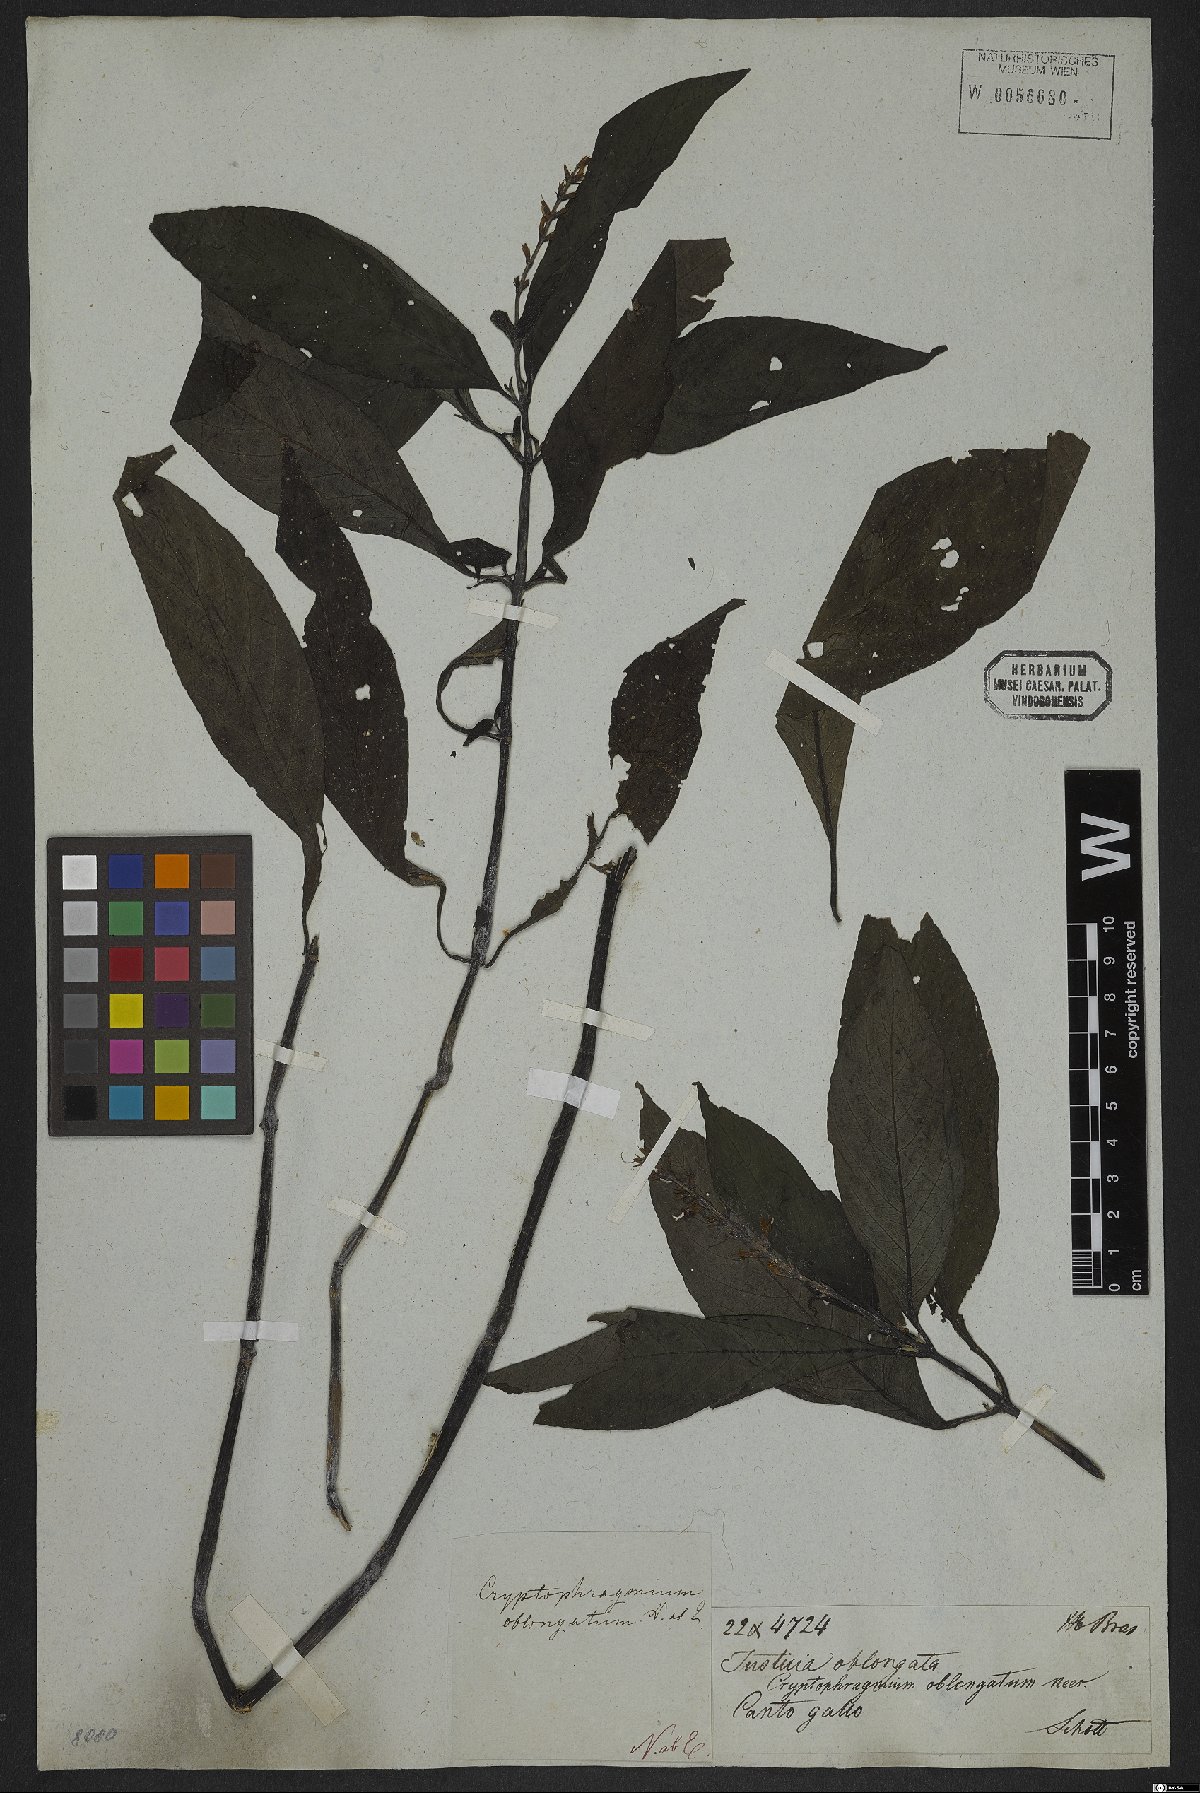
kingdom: Plantae
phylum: Tracheophyta
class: Magnoliopsida
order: Lamiales
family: Acanthaceae
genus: Gymnostachyum
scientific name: Gymnostachyum
